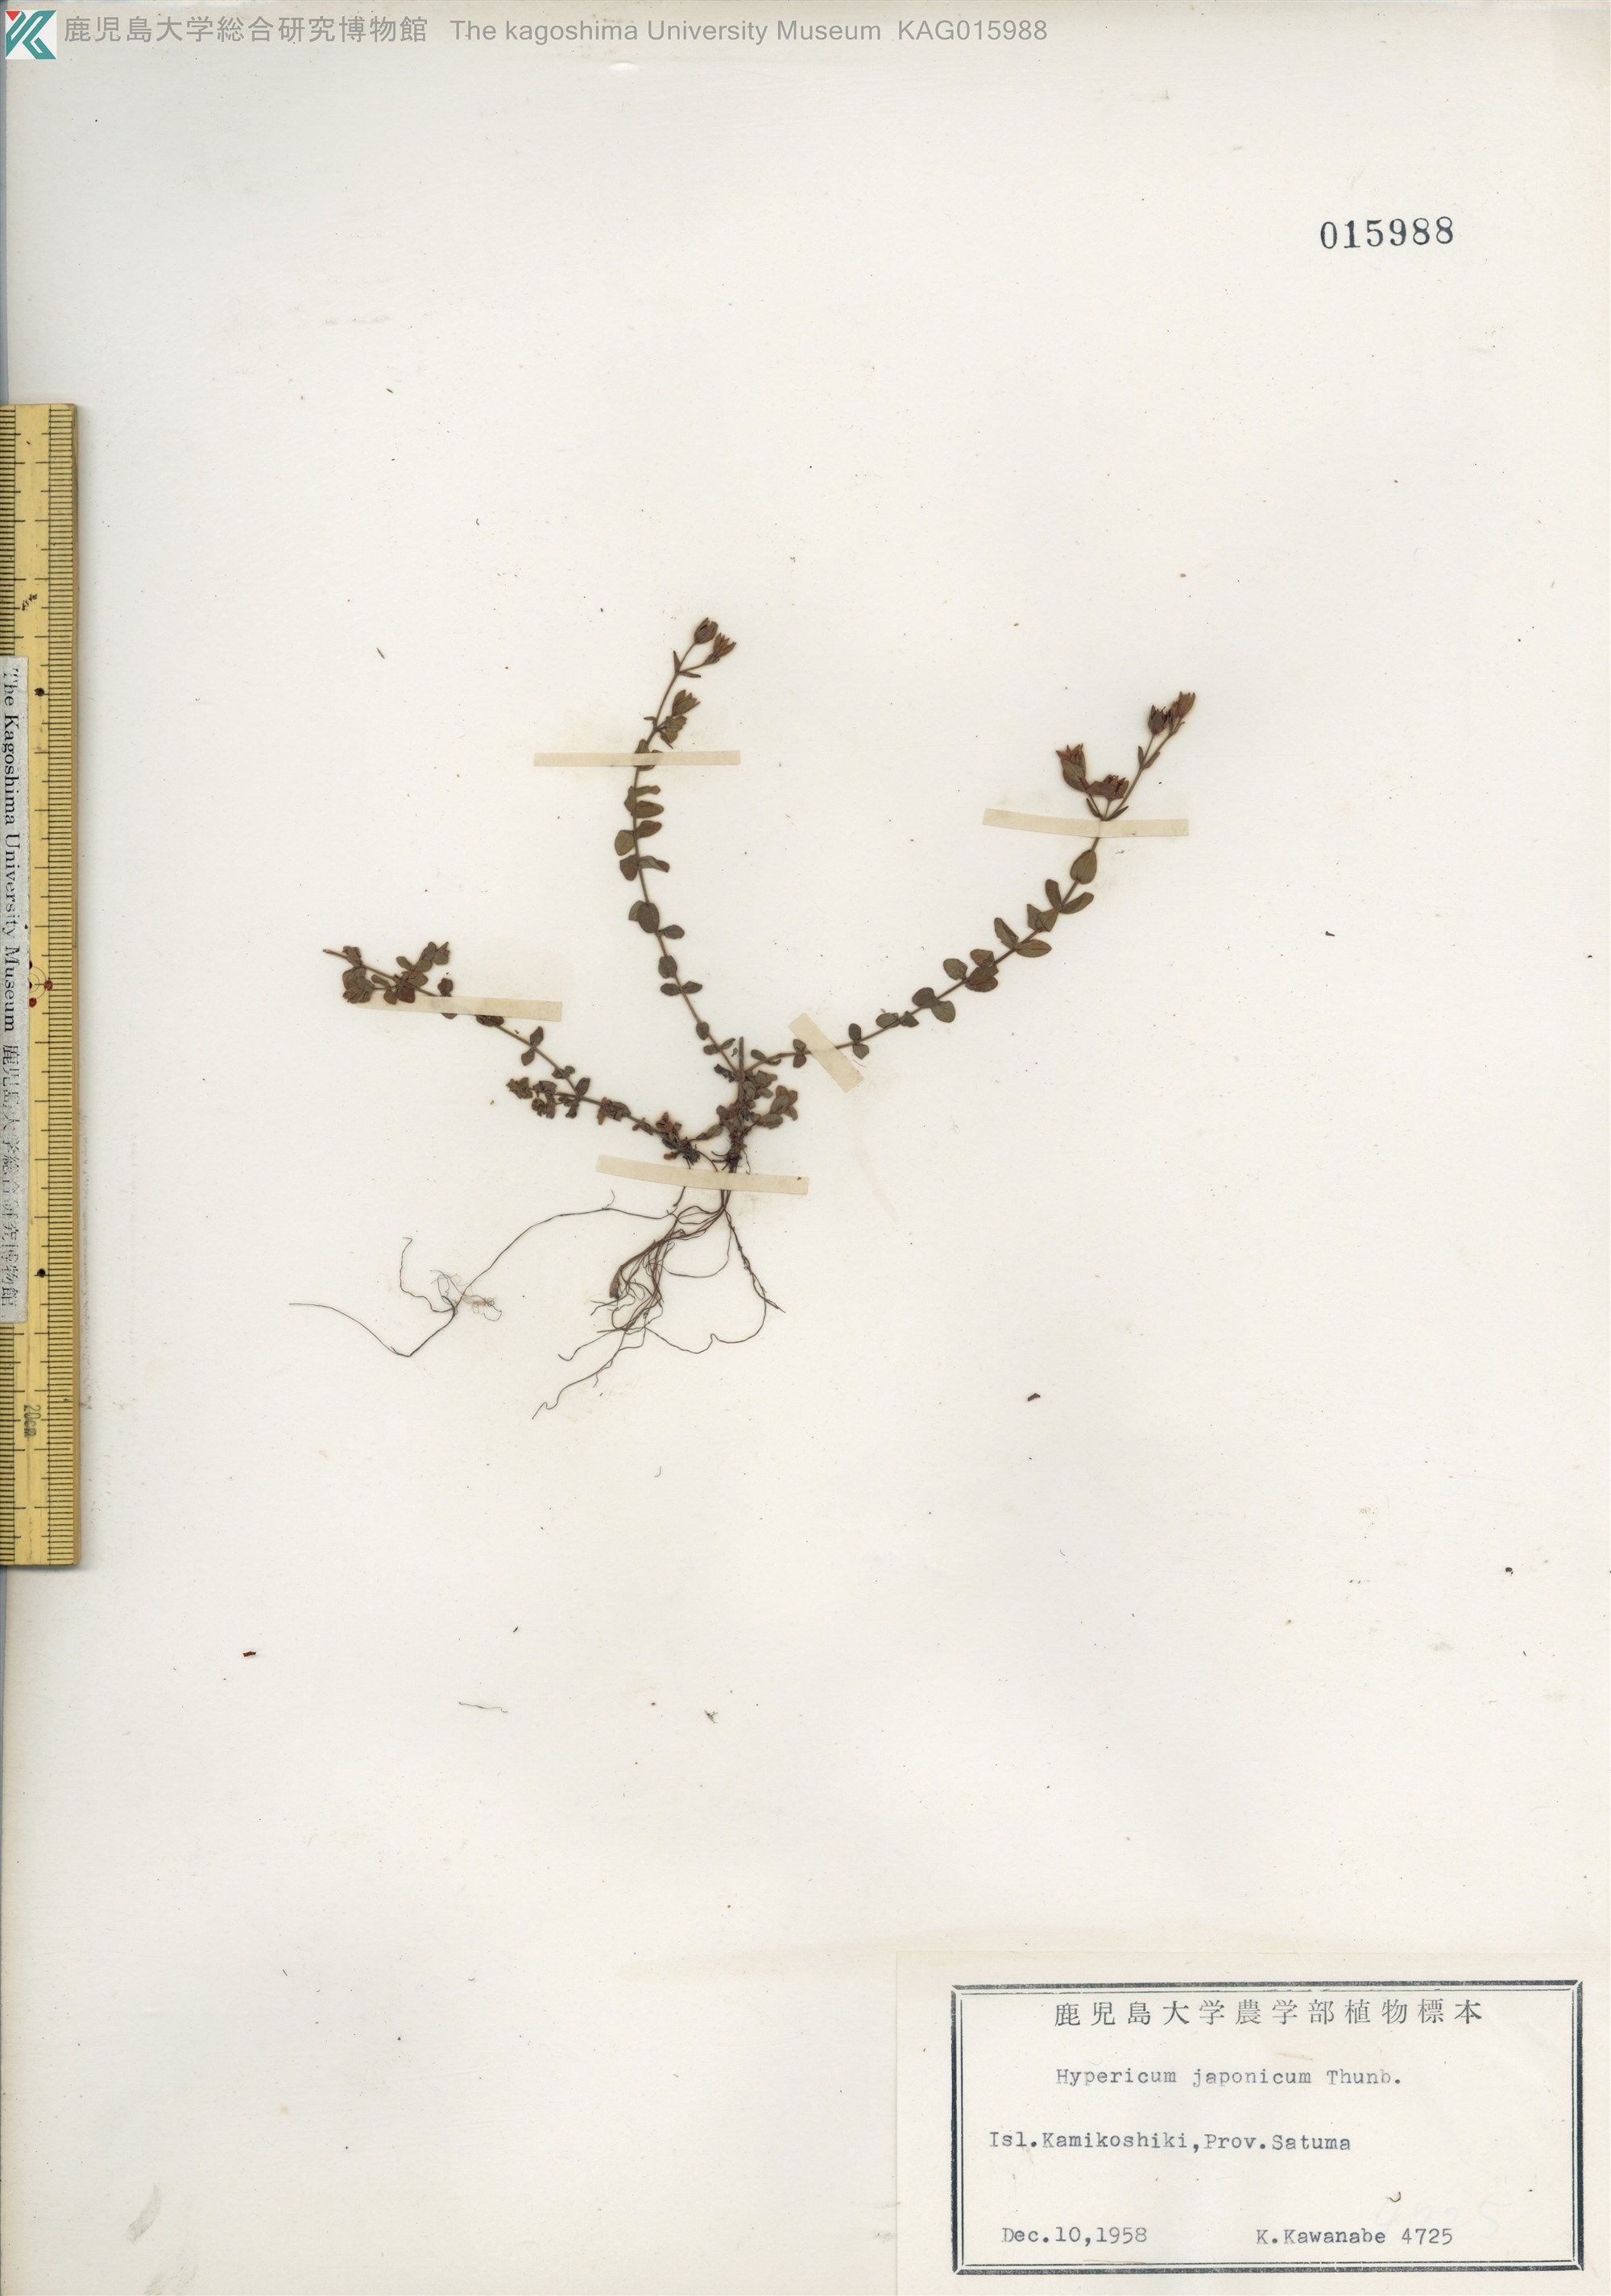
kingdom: Plantae
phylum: Tracheophyta
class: Magnoliopsida
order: Malpighiales
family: Hypericaceae
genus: Hypericum
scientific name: Hypericum japonicum
